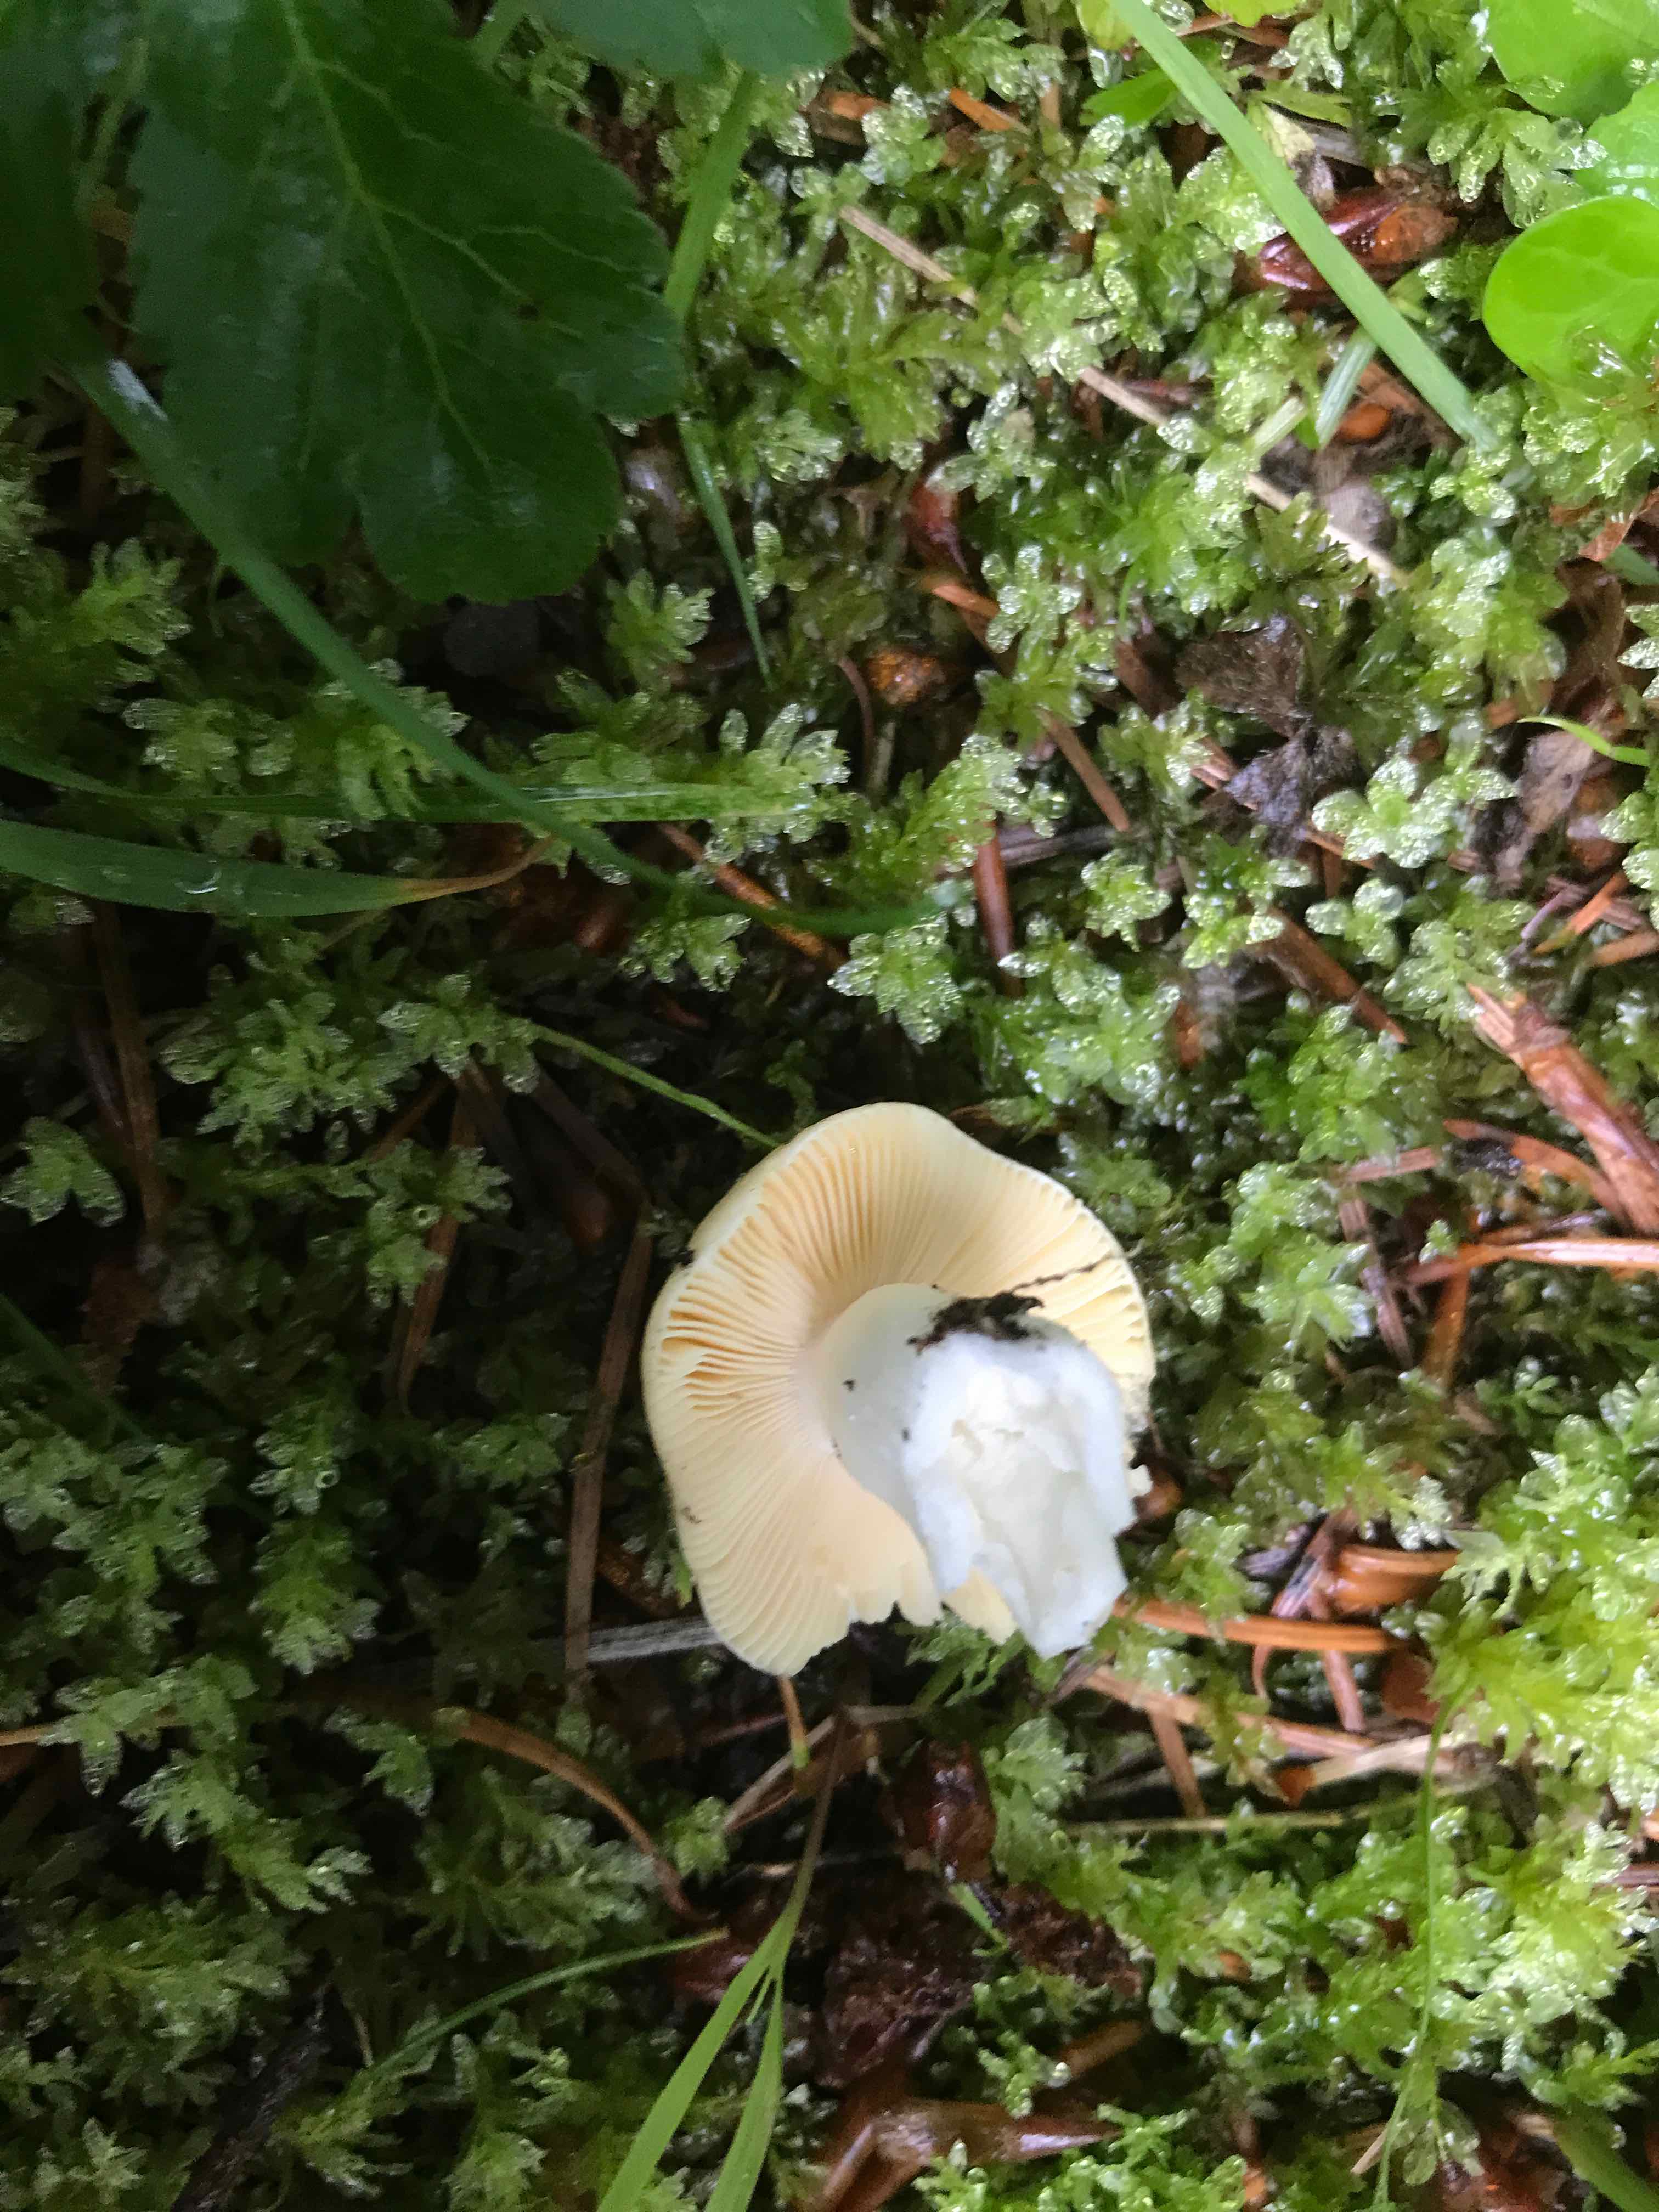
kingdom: Fungi
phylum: Basidiomycota
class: Agaricomycetes
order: Russulales
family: Russulaceae
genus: Russula
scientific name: Russula risigallina
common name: abrikos-skørhat
